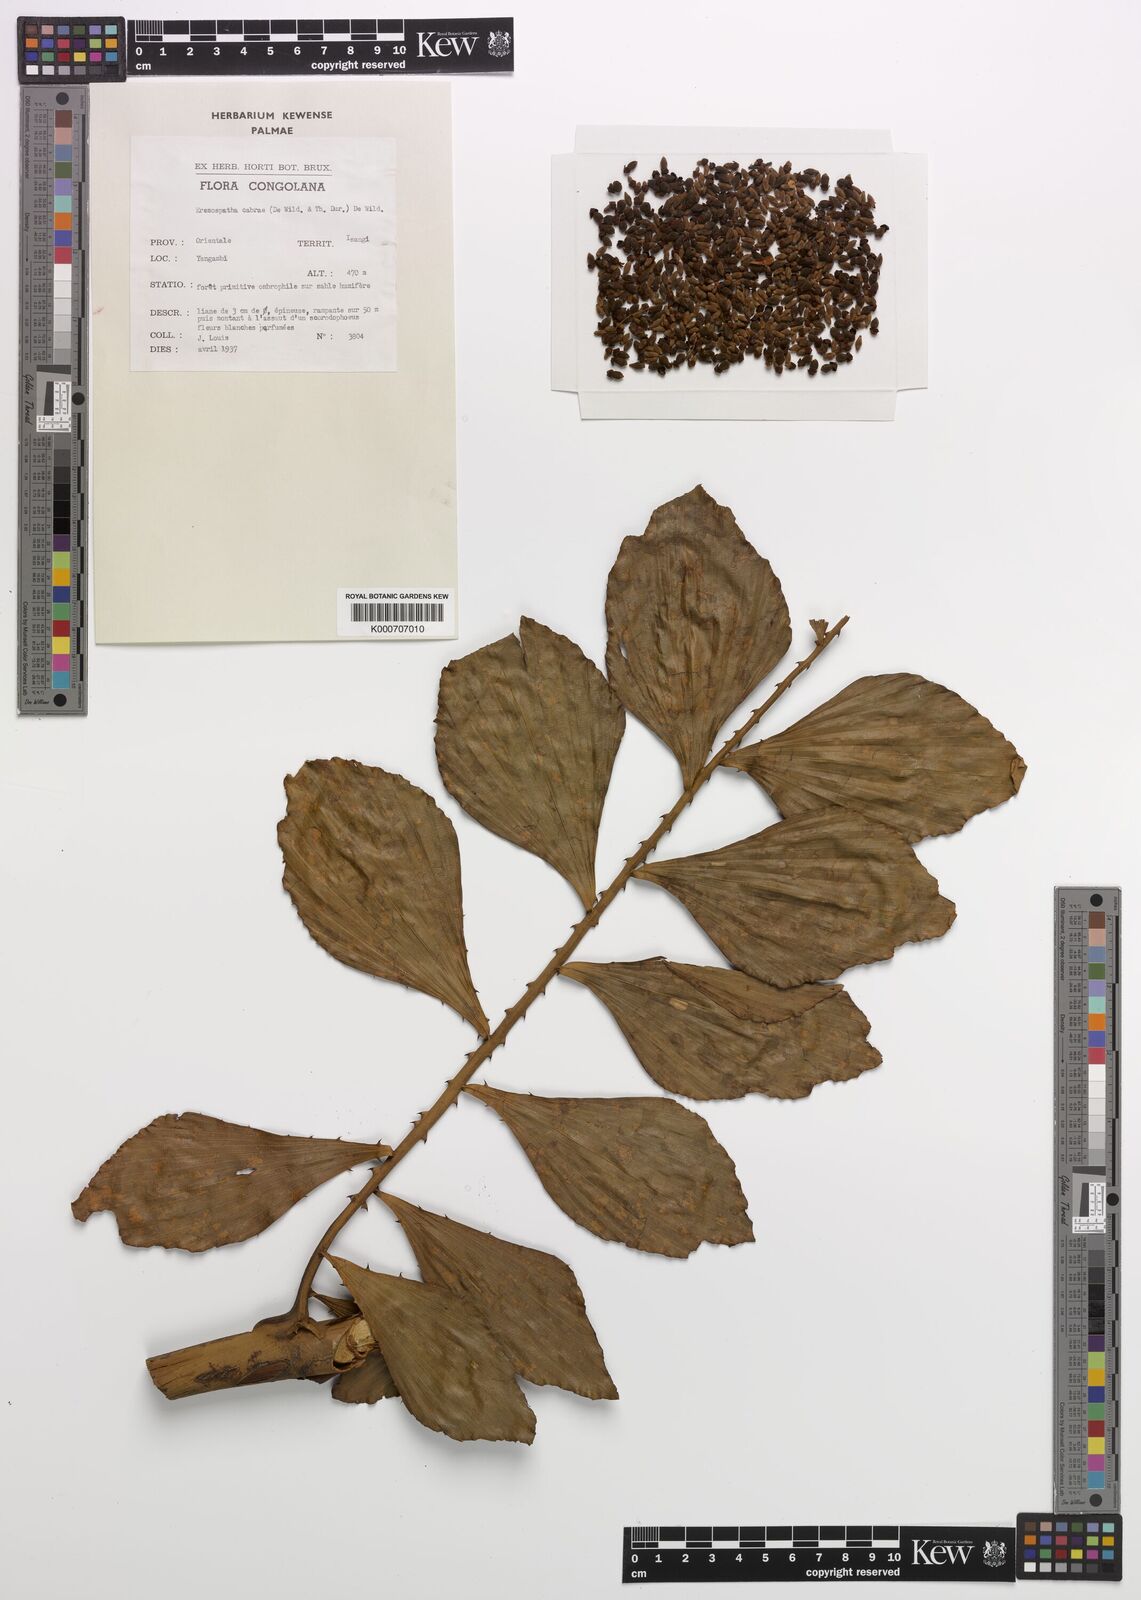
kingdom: Plantae
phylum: Tracheophyta
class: Liliopsida
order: Arecales
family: Arecaceae
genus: Eremospatha
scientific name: Eremospatha cabrae
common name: Rattan
